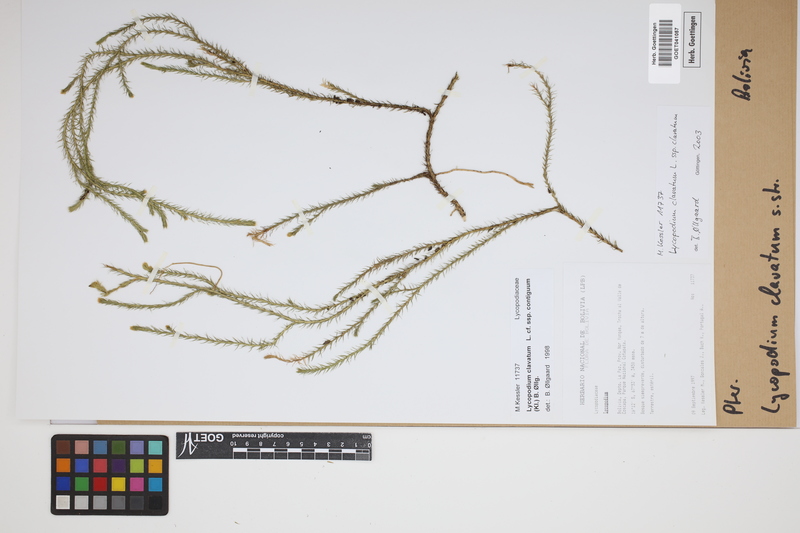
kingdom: Plantae
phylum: Tracheophyta
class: Lycopodiopsida
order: Lycopodiales
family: Lycopodiaceae
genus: Lycopodium
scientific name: Lycopodium clavatum
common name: Stag's-horn clubmoss
